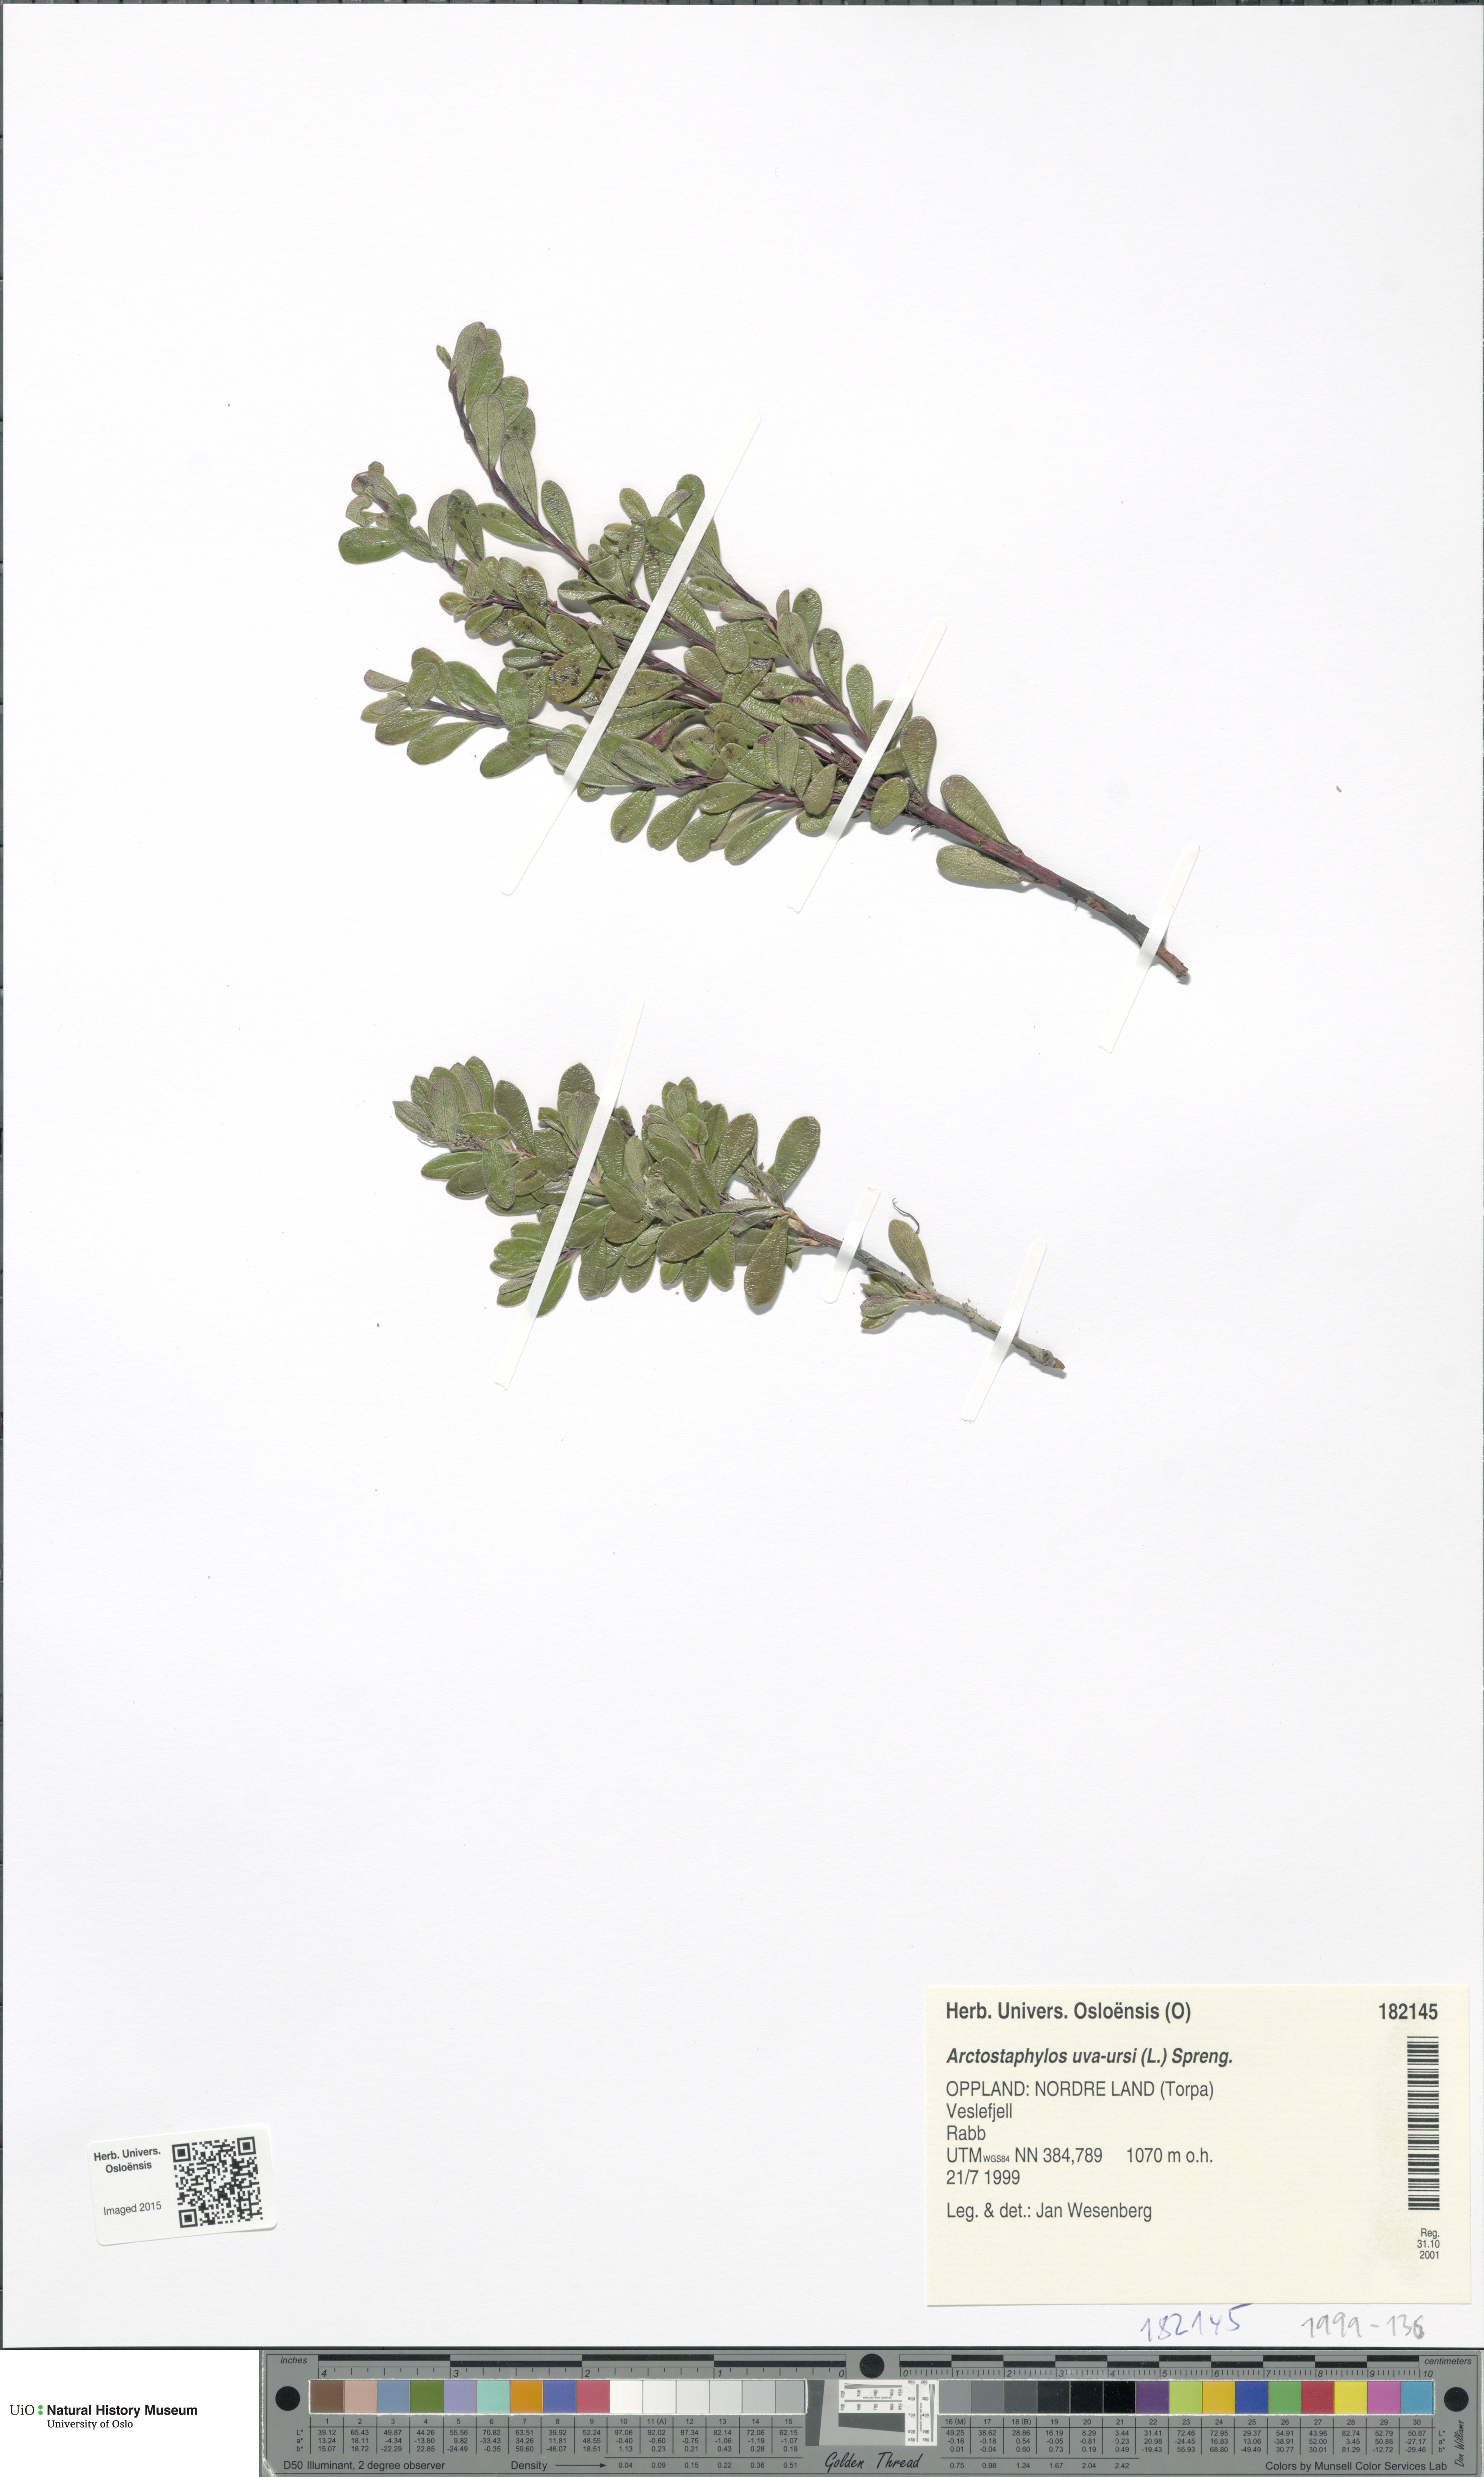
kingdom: Plantae
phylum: Tracheophyta
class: Magnoliopsida
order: Ericales
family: Ericaceae
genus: Arctostaphylos
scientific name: Arctostaphylos uva-ursi
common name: Bearberry
